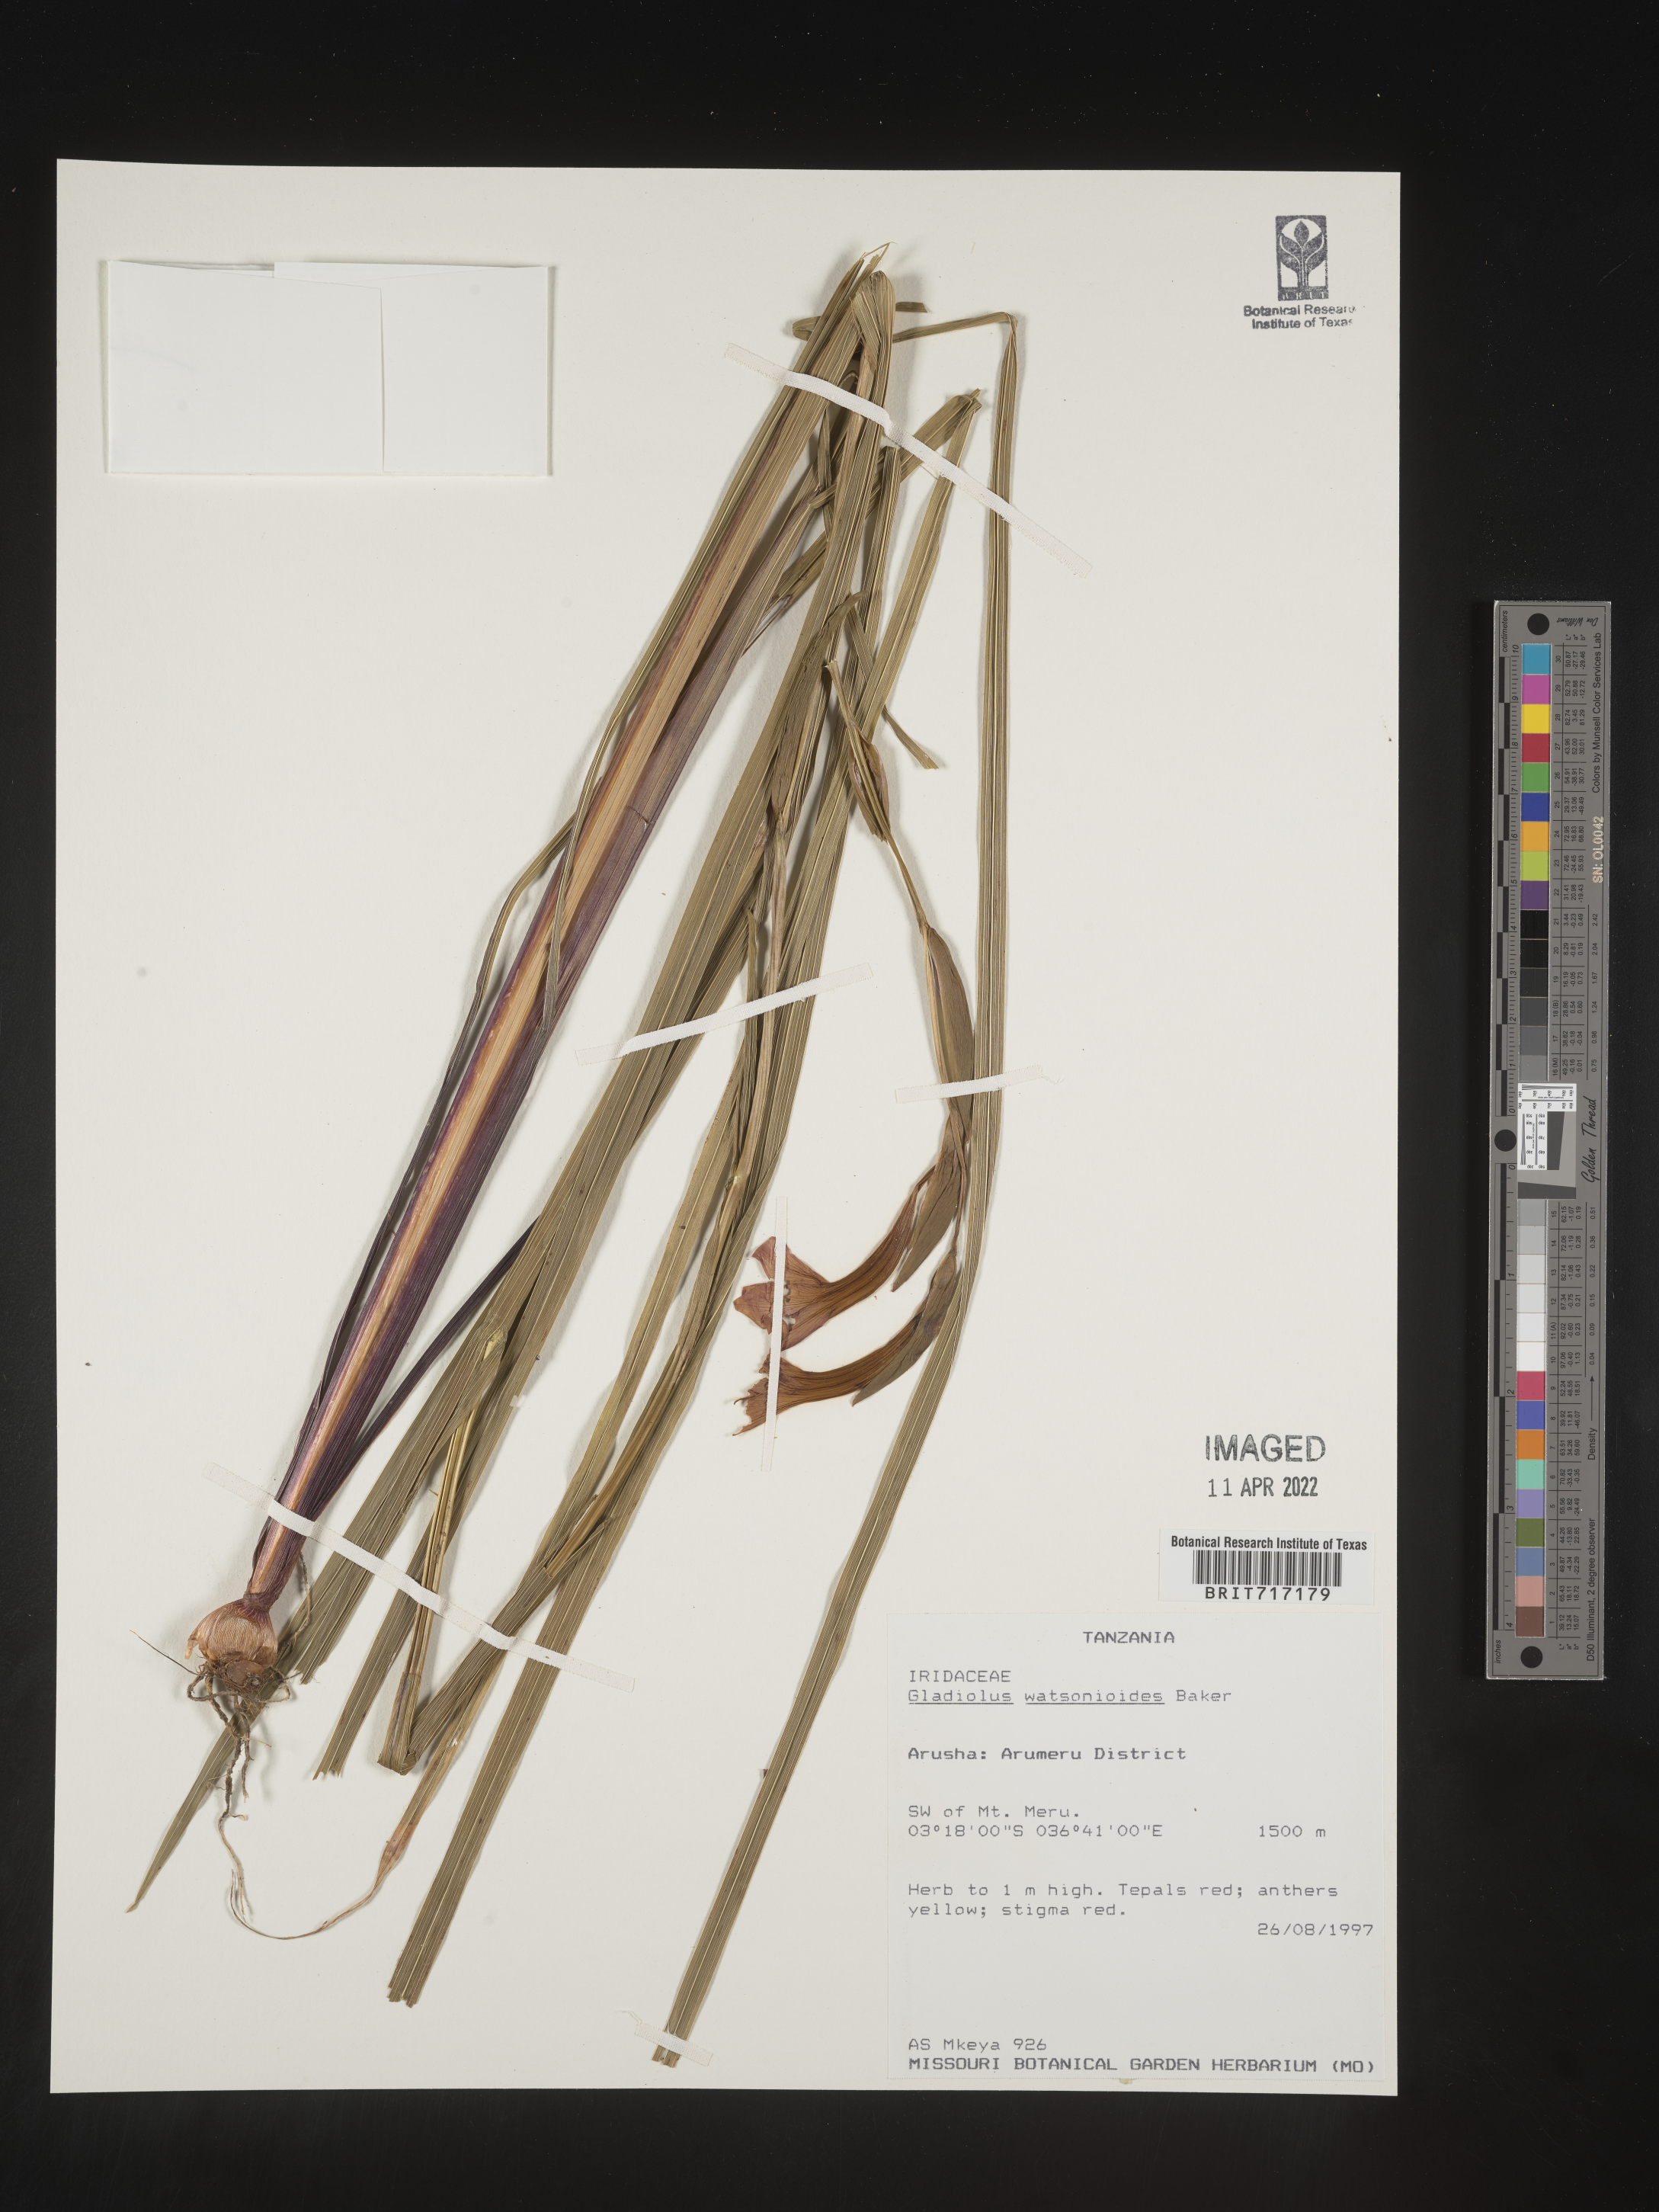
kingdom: Plantae
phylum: Tracheophyta
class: Liliopsida
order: Asparagales
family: Iridaceae
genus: Gladiolus
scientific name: Gladiolus
